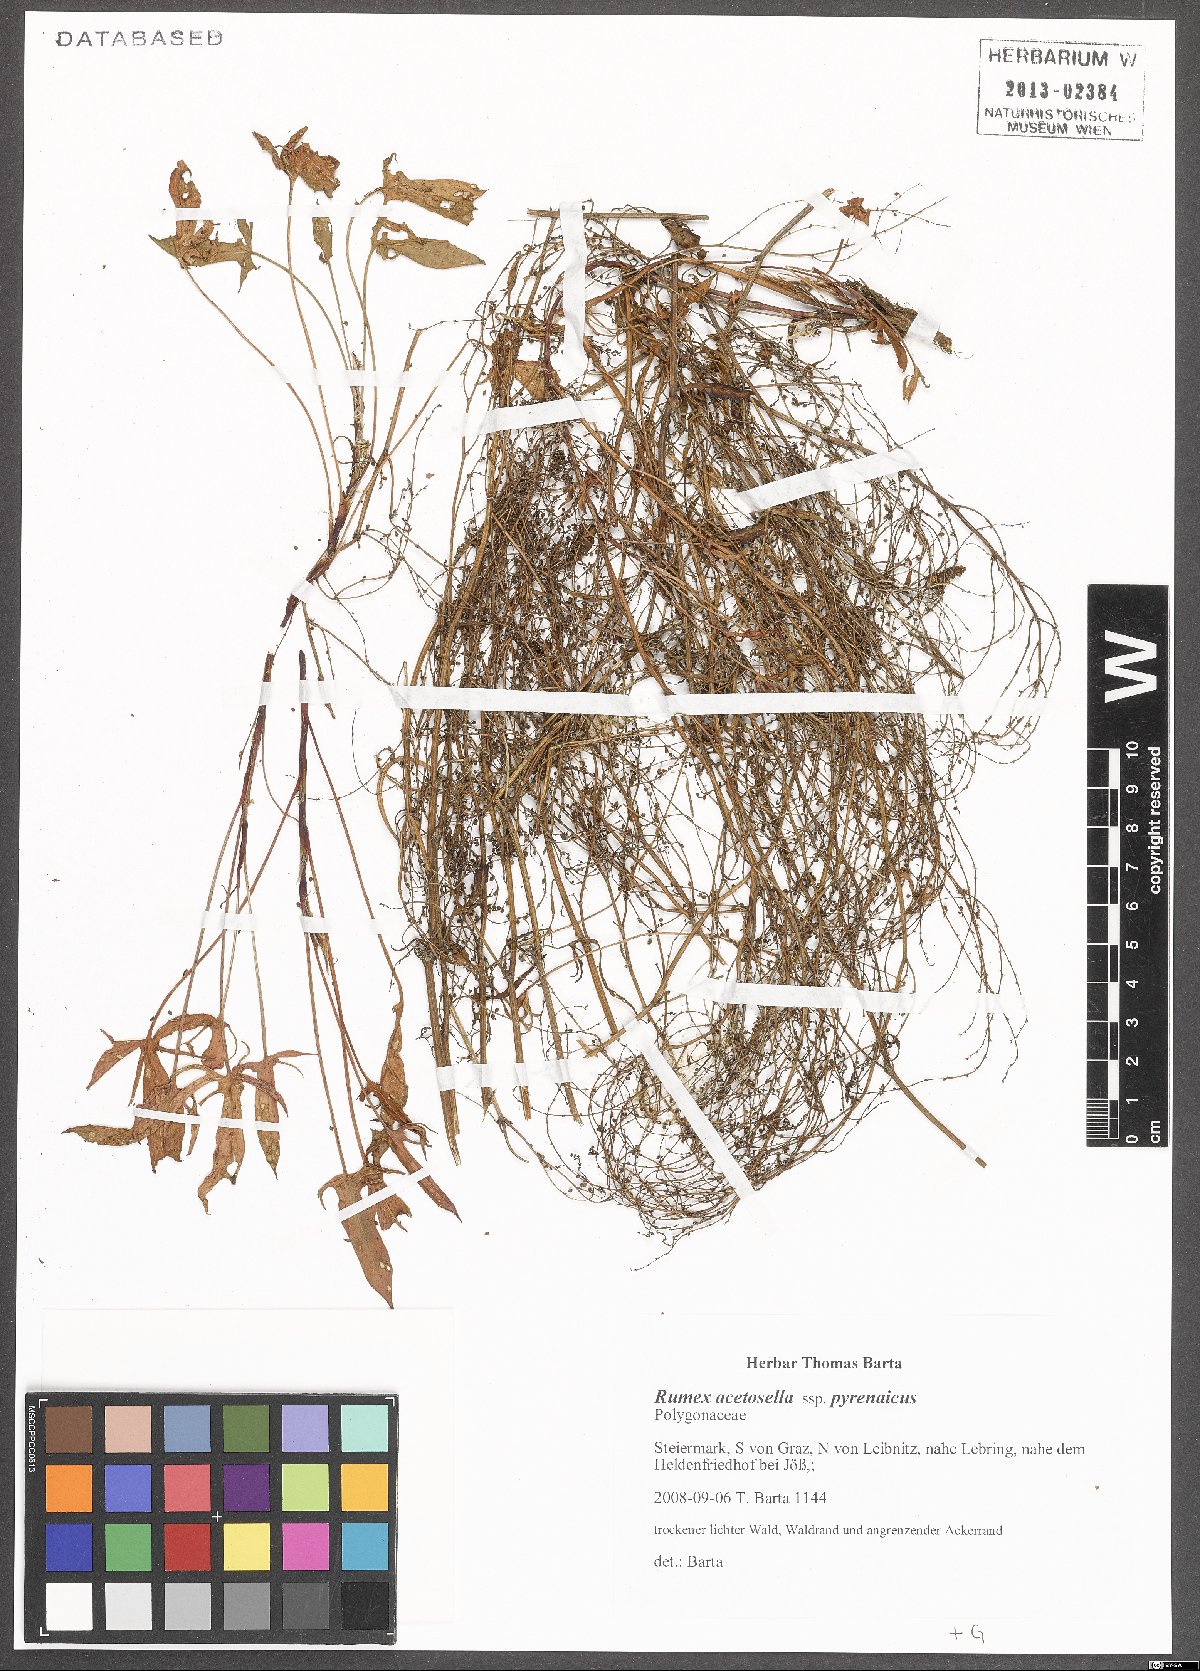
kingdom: Plantae
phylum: Tracheophyta
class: Magnoliopsida
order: Caryophyllales
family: Polygonaceae
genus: Rumex
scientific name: Rumex acetosella
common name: Common sheep sorrel
